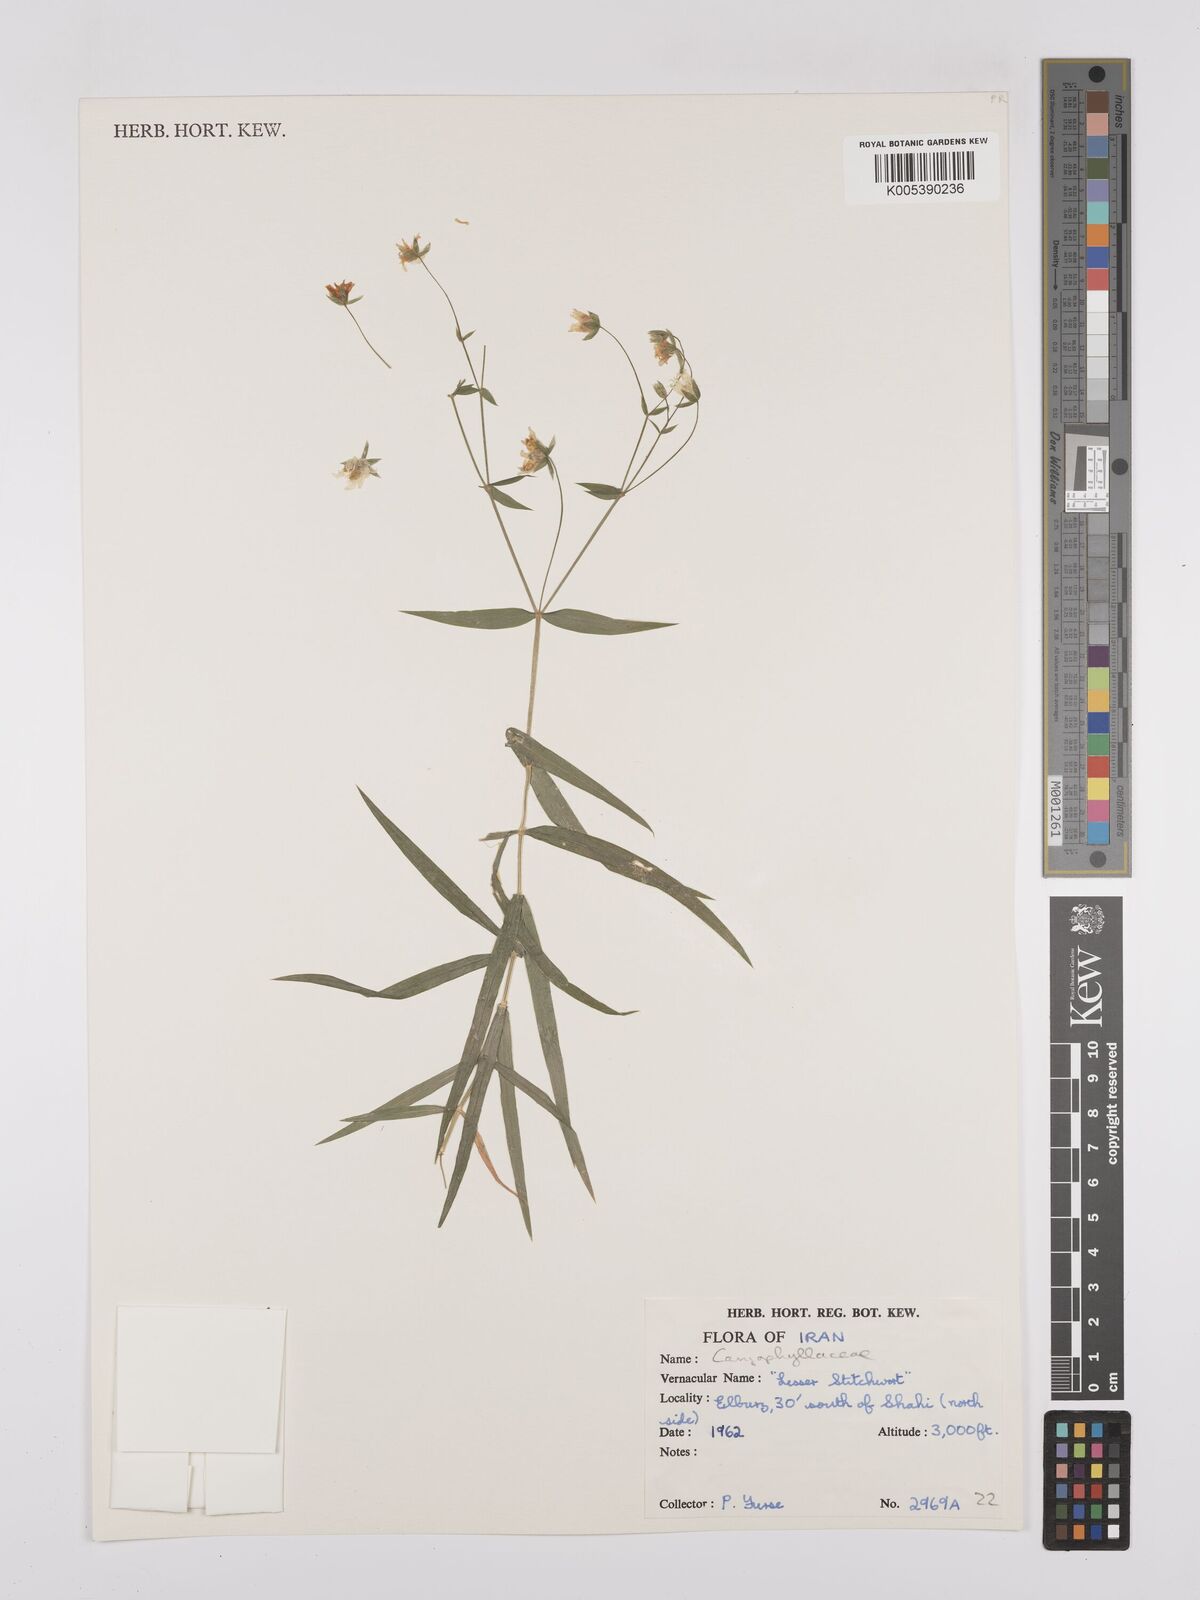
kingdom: Plantae
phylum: Tracheophyta
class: Magnoliopsida
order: Caryophyllales
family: Caryophyllaceae
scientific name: Caryophyllaceae
